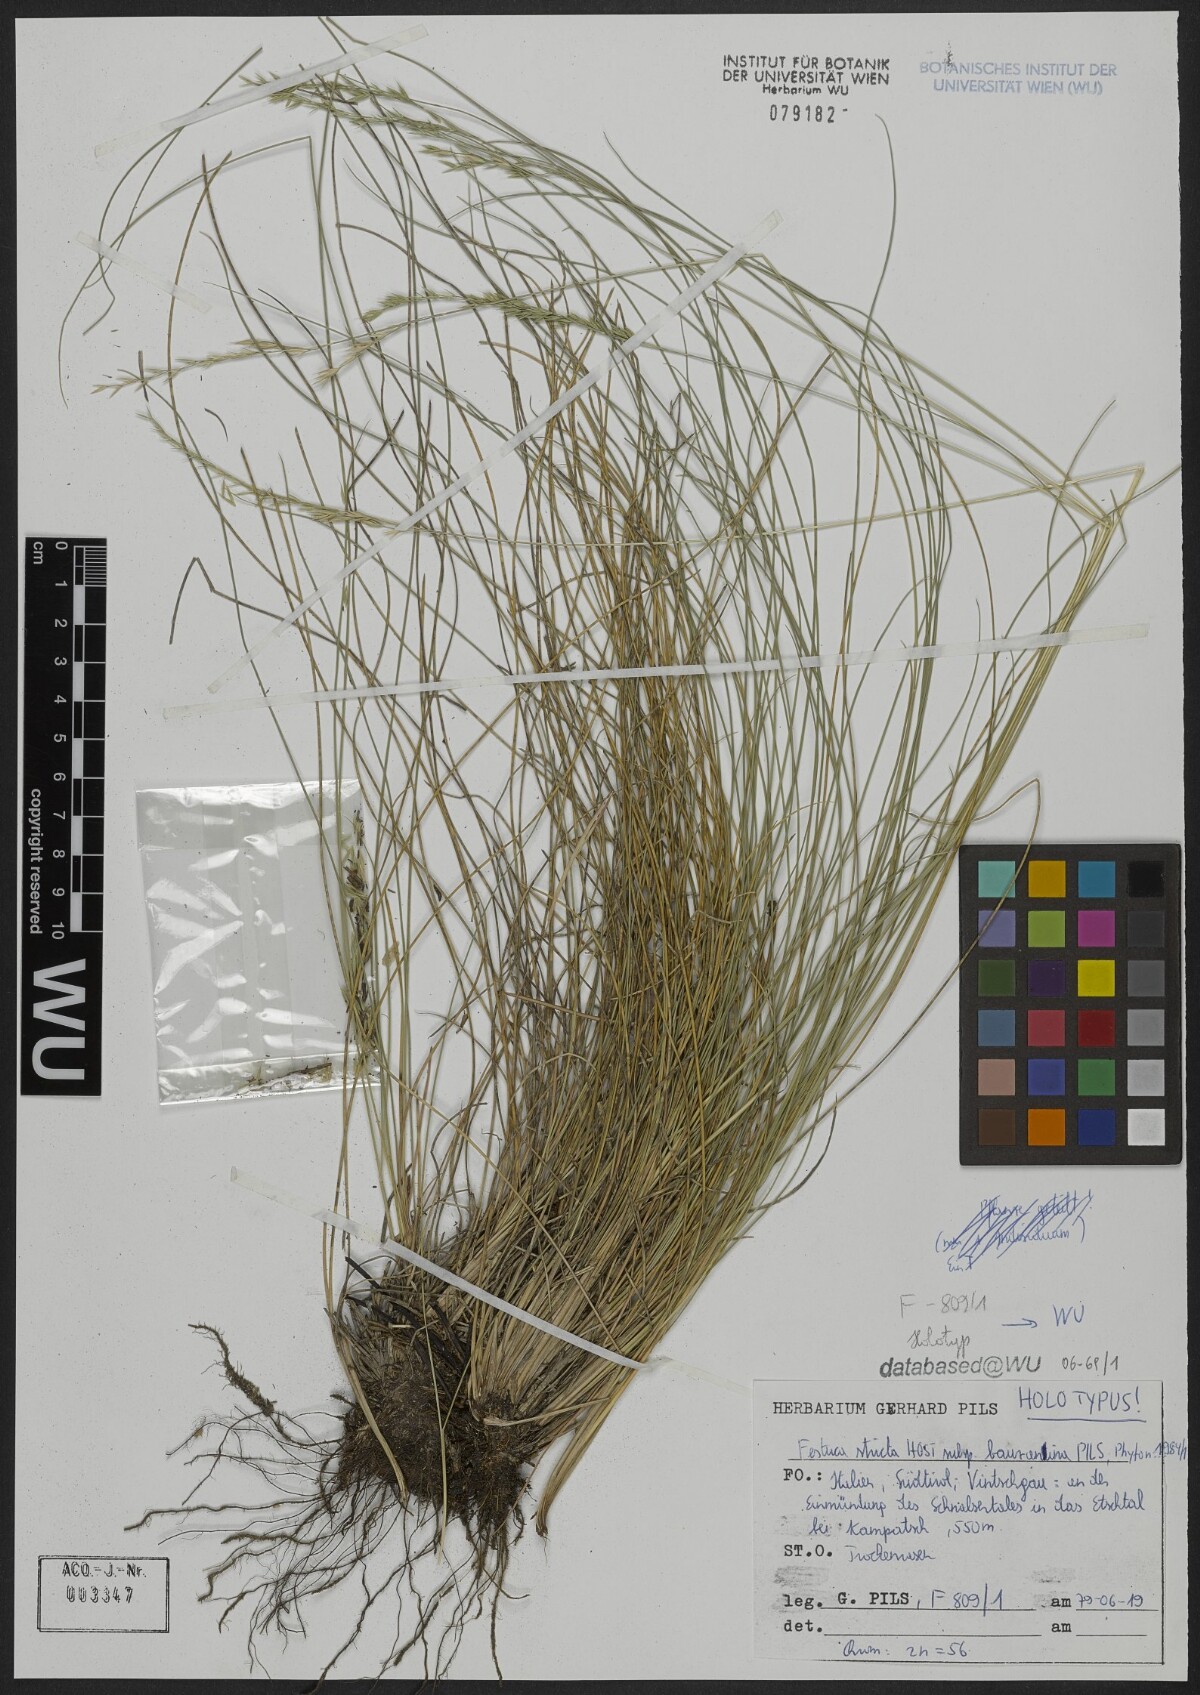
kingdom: Plantae
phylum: Tracheophyta
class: Liliopsida
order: Poales
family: Poaceae
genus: Festuca
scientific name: Festuca bauzanina
